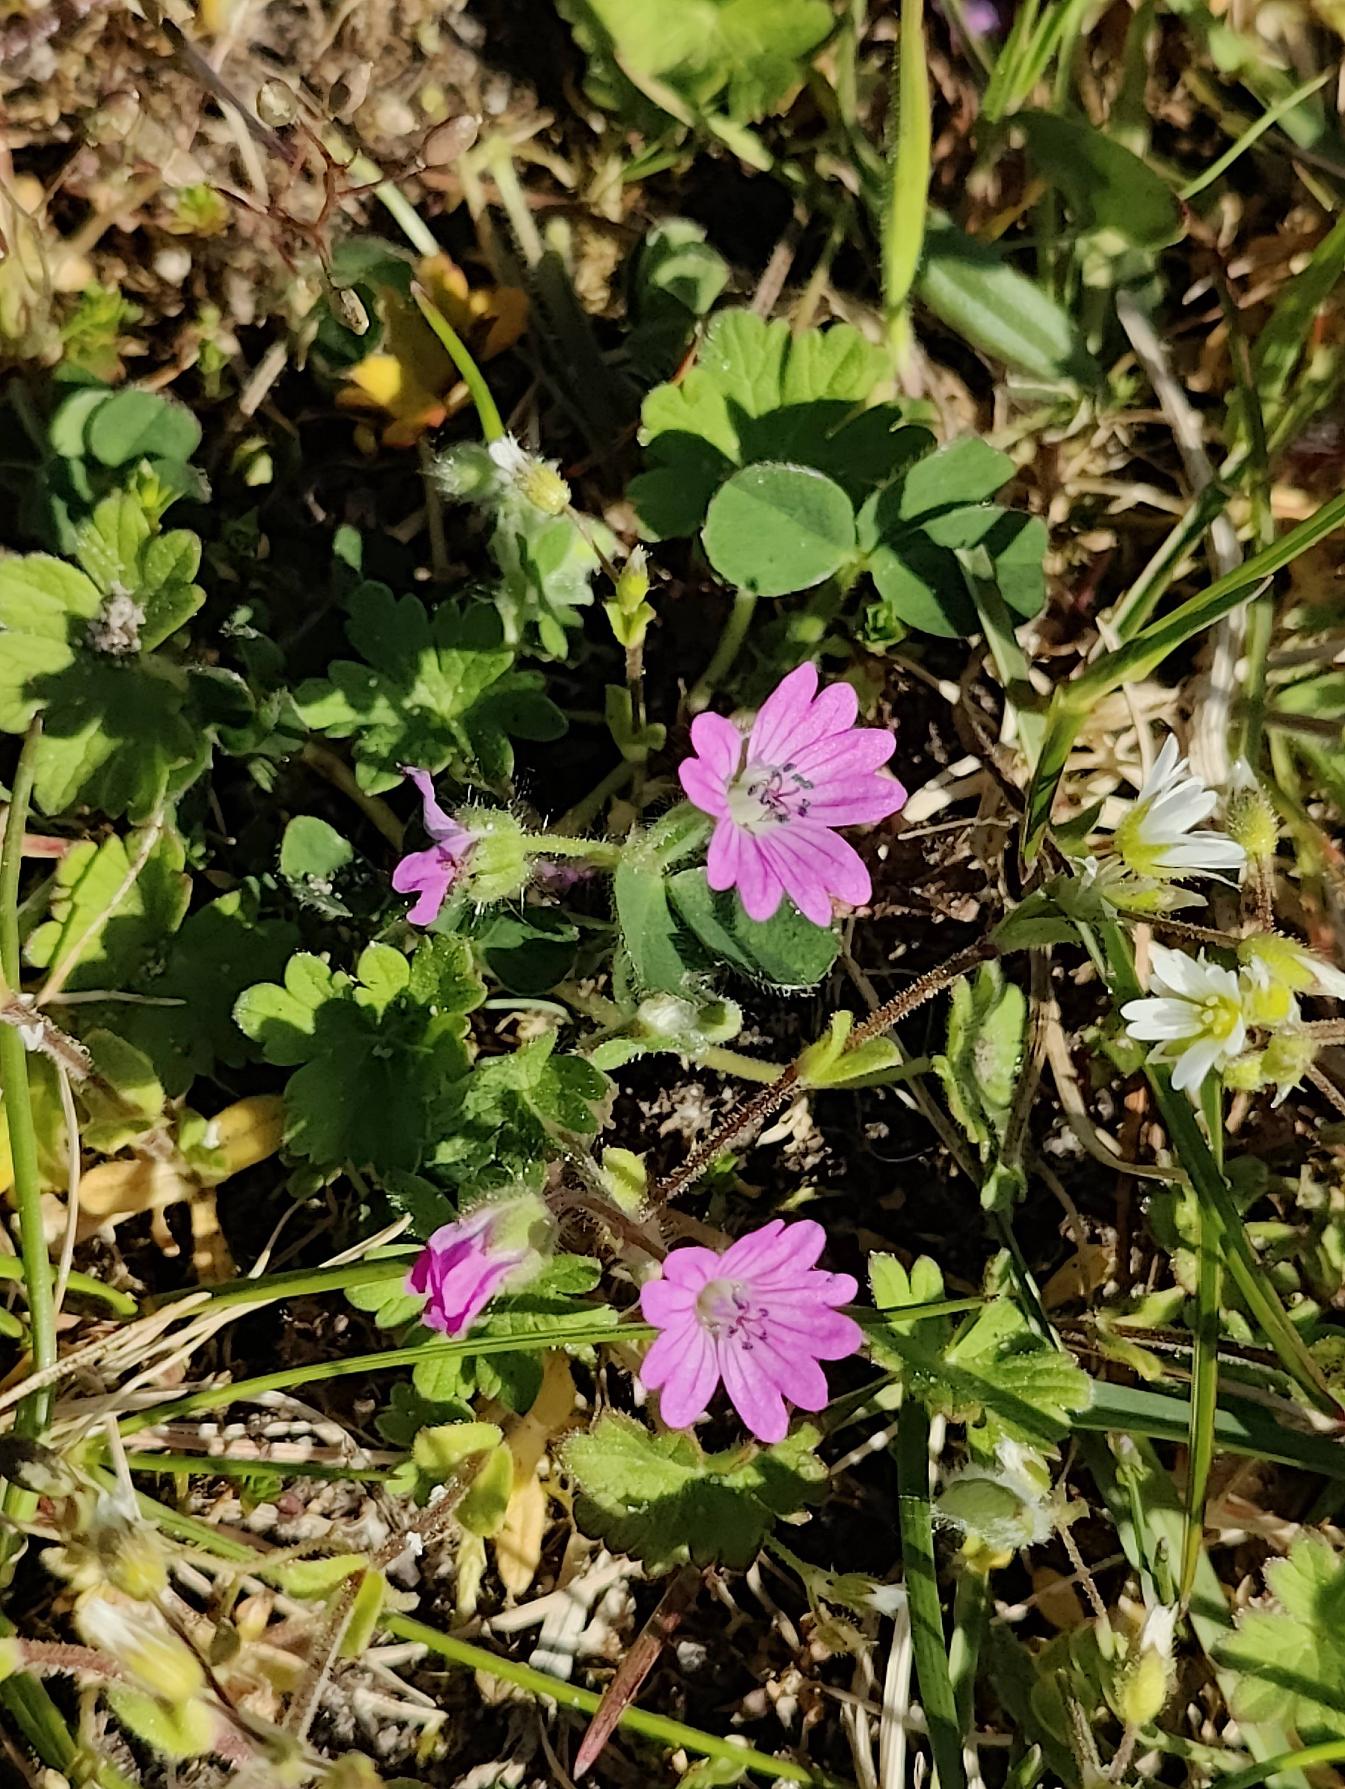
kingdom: Plantae
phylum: Tracheophyta
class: Magnoliopsida
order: Geraniales
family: Geraniaceae
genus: Geranium
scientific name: Geranium molle
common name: Blød storkenæb
